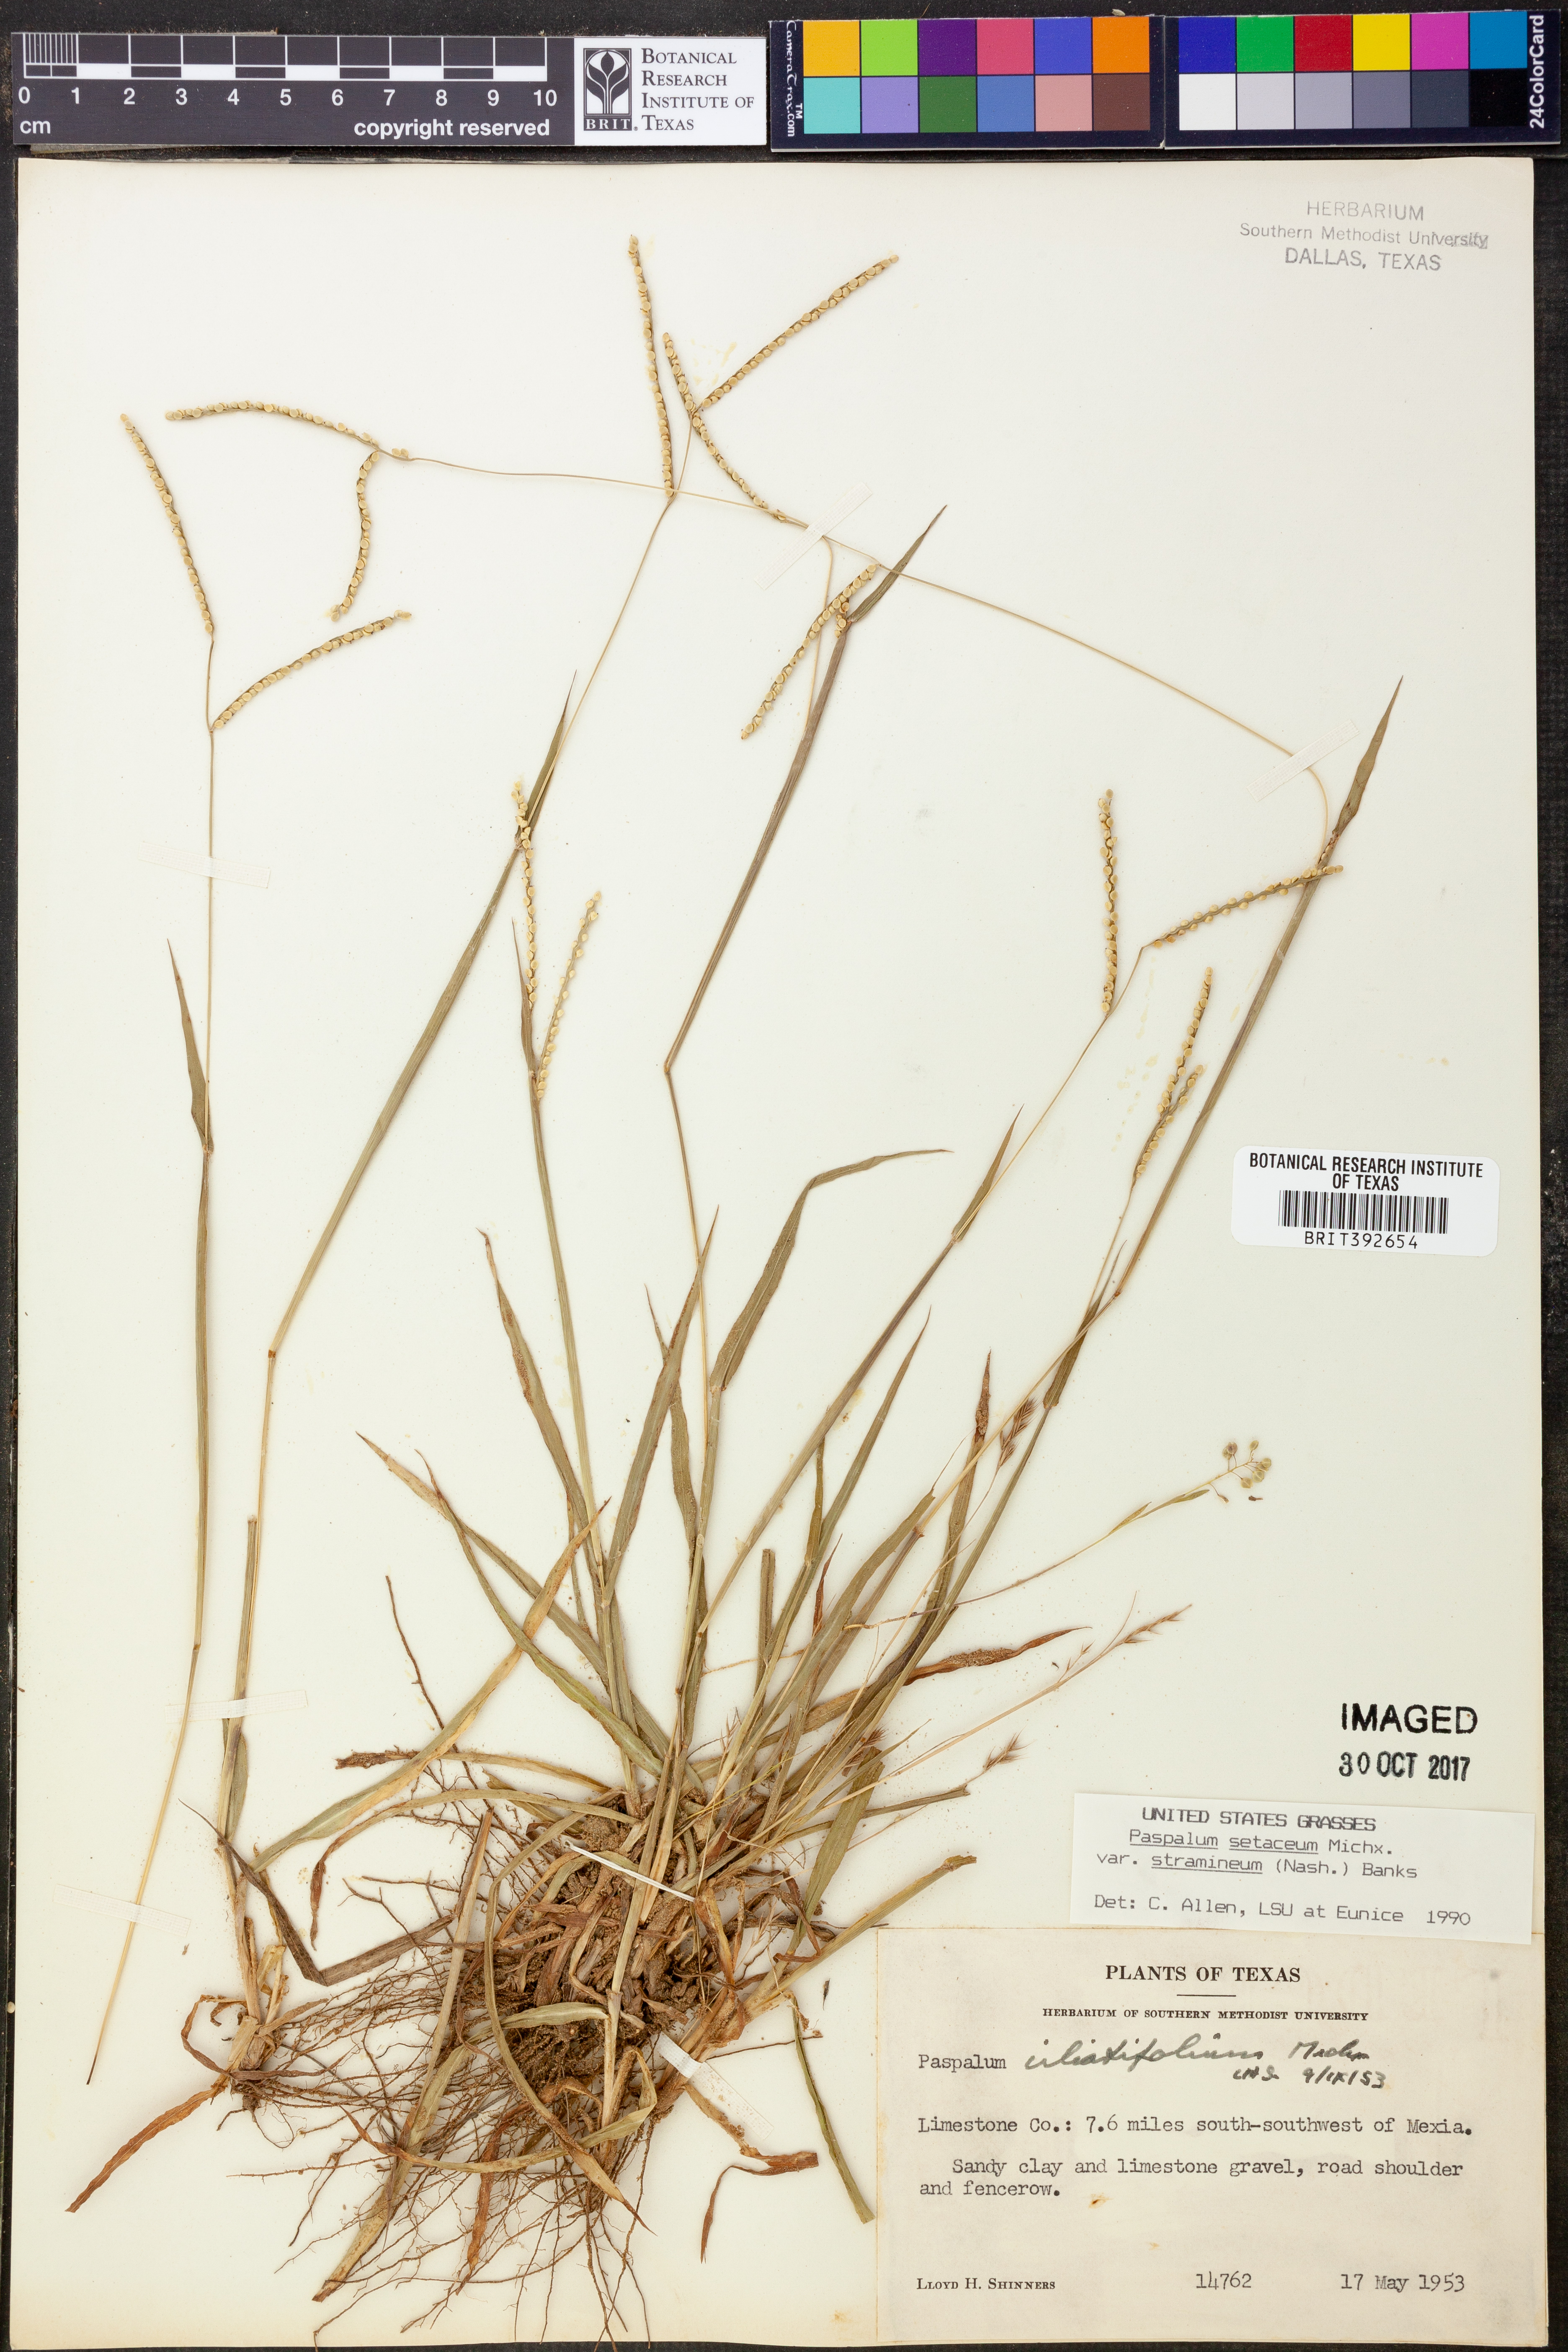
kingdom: Plantae
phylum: Tracheophyta
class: Liliopsida
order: Poales
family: Poaceae
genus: Paspalum
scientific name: Paspalum setaceum
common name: Slender paspalum
